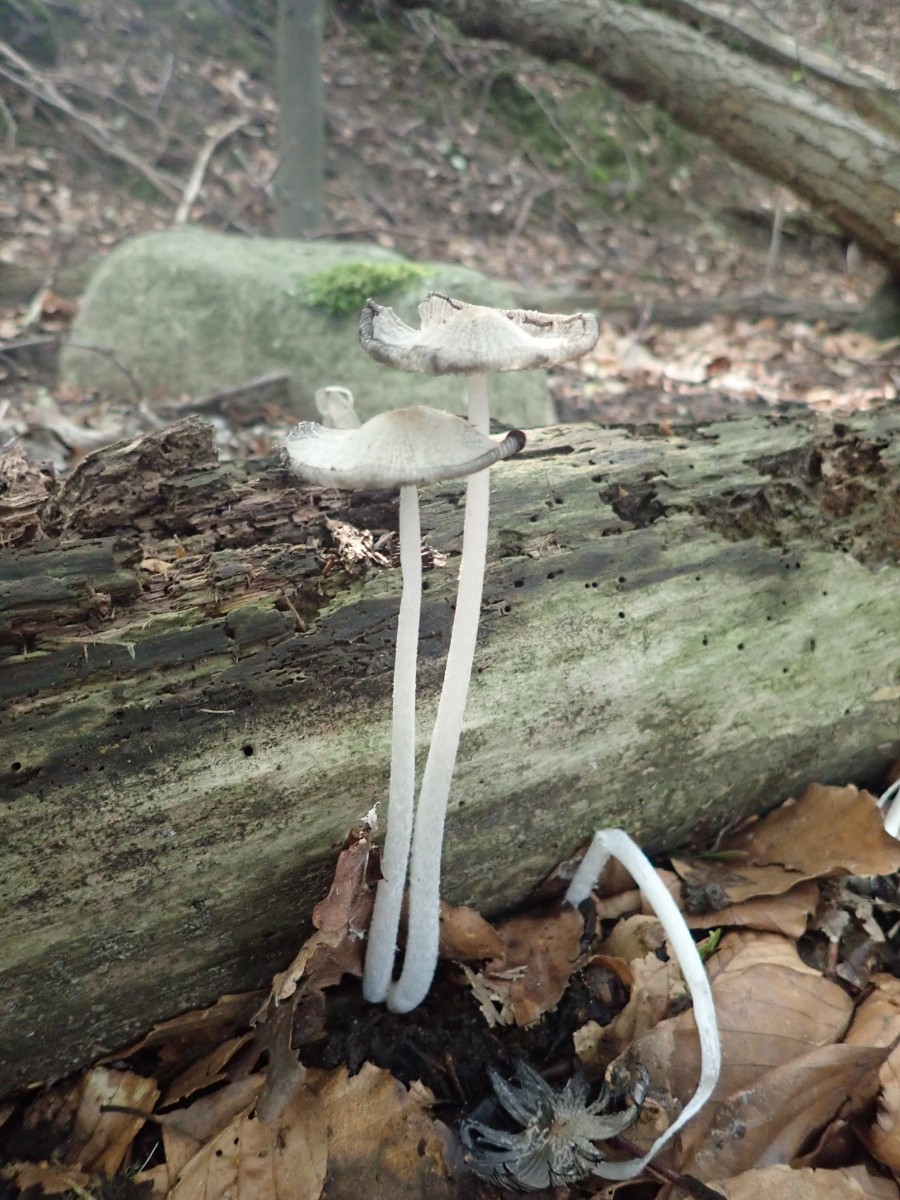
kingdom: Fungi
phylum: Basidiomycota
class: Agaricomycetes
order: Agaricales
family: Psathyrellaceae
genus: Coprinopsis
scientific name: Coprinopsis lagopus
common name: dunstokket blækhat
